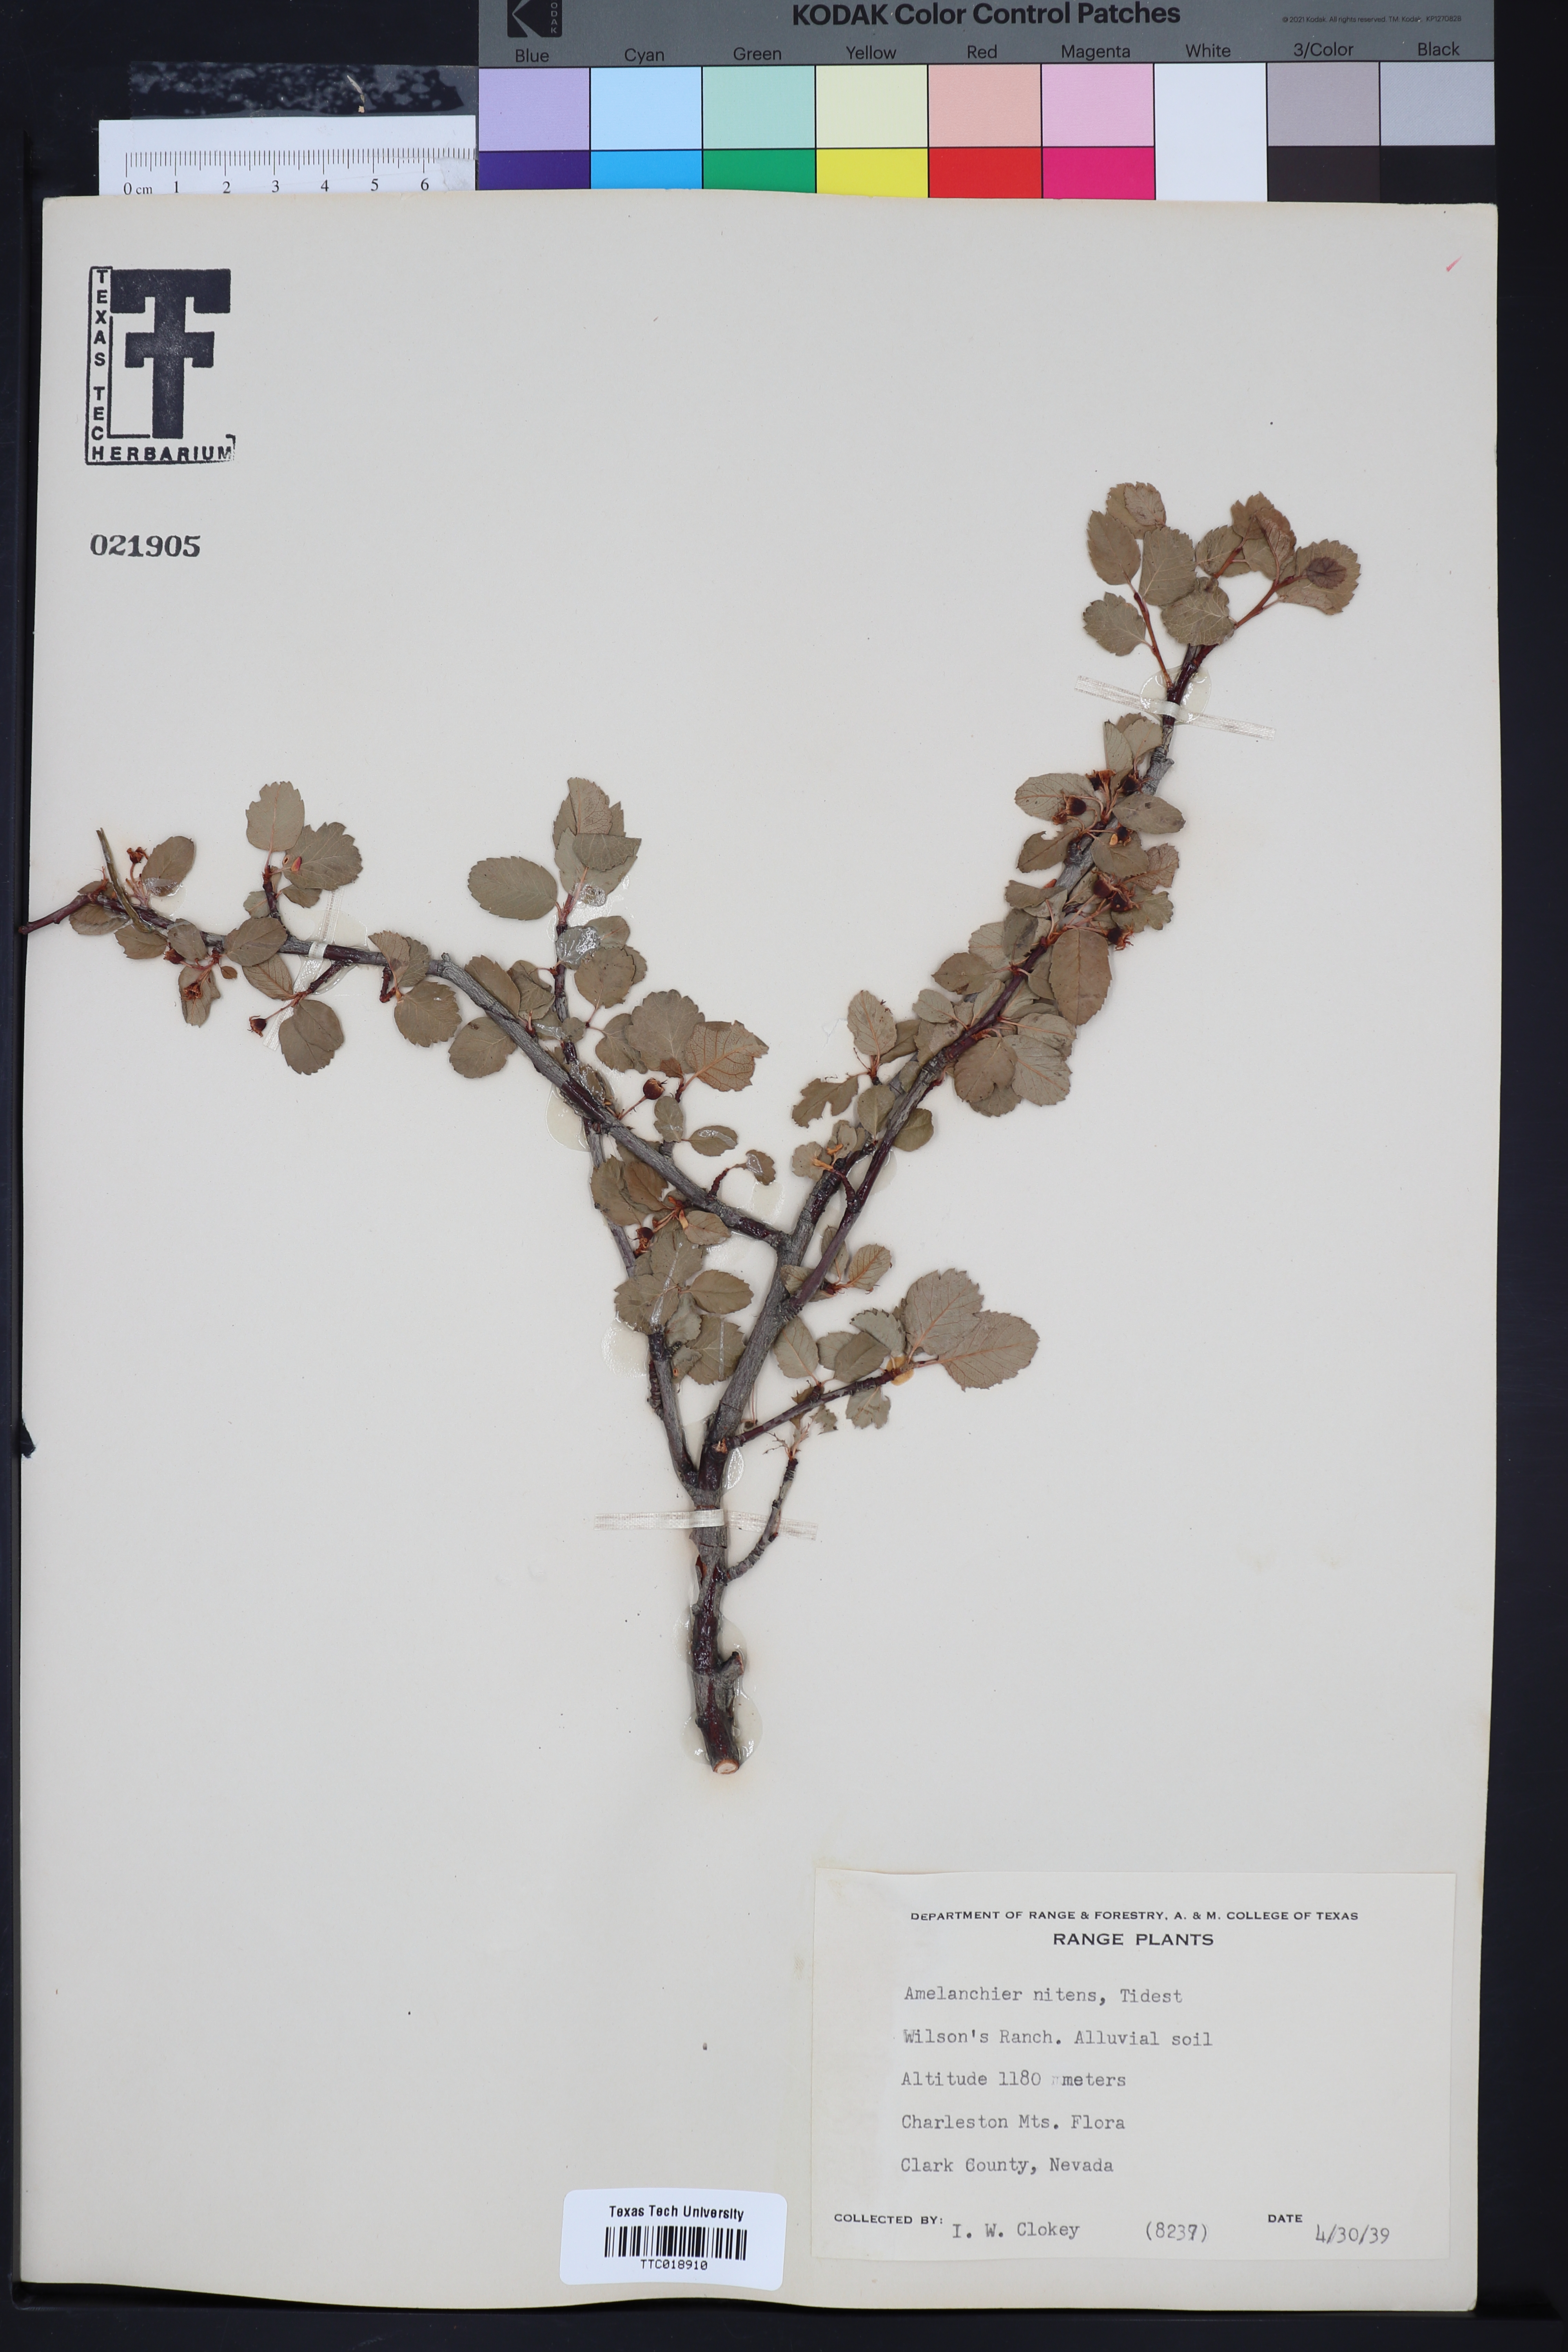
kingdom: Plantae
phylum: Tracheophyta
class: Magnoliopsida
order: Rosales
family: Rosaceae
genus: Amelanchier
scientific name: Amelanchier utahensis
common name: Utah serviceberry
